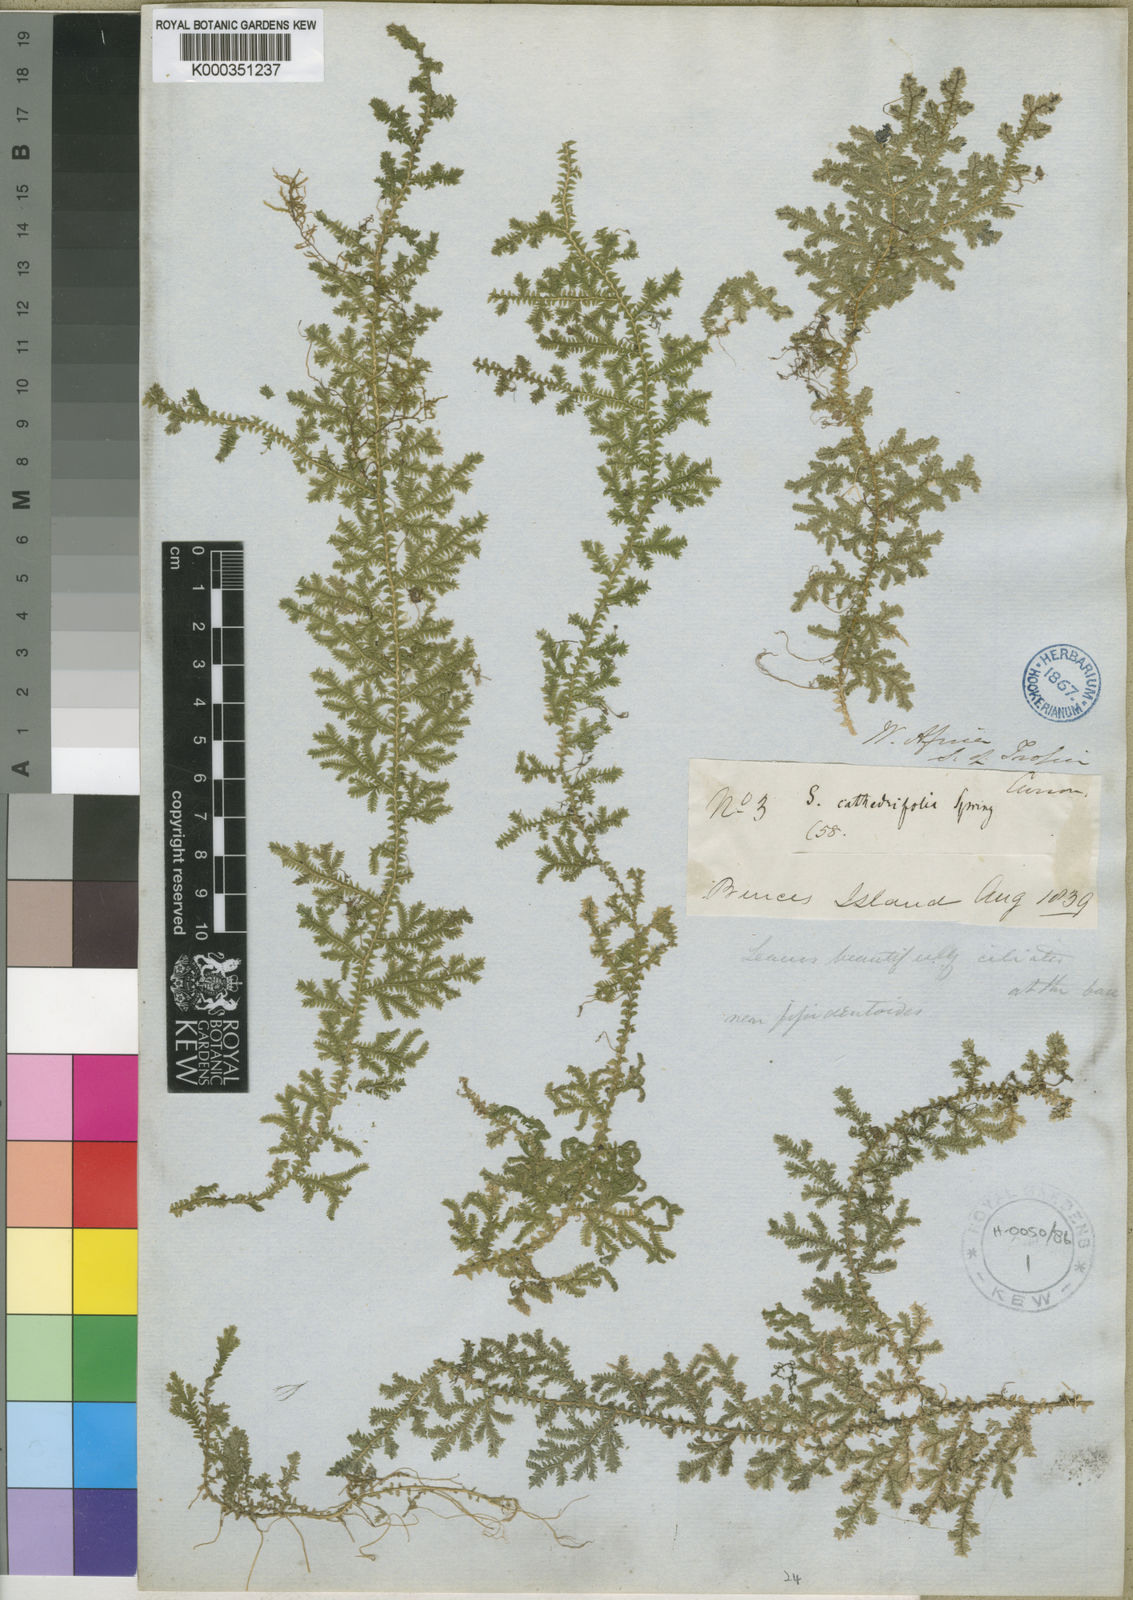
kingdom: Plantae
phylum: Tracheophyta
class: Lycopodiopsida
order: Selaginellales
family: Selaginellaceae
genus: Selaginella
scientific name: Selaginella cathedrifolia
